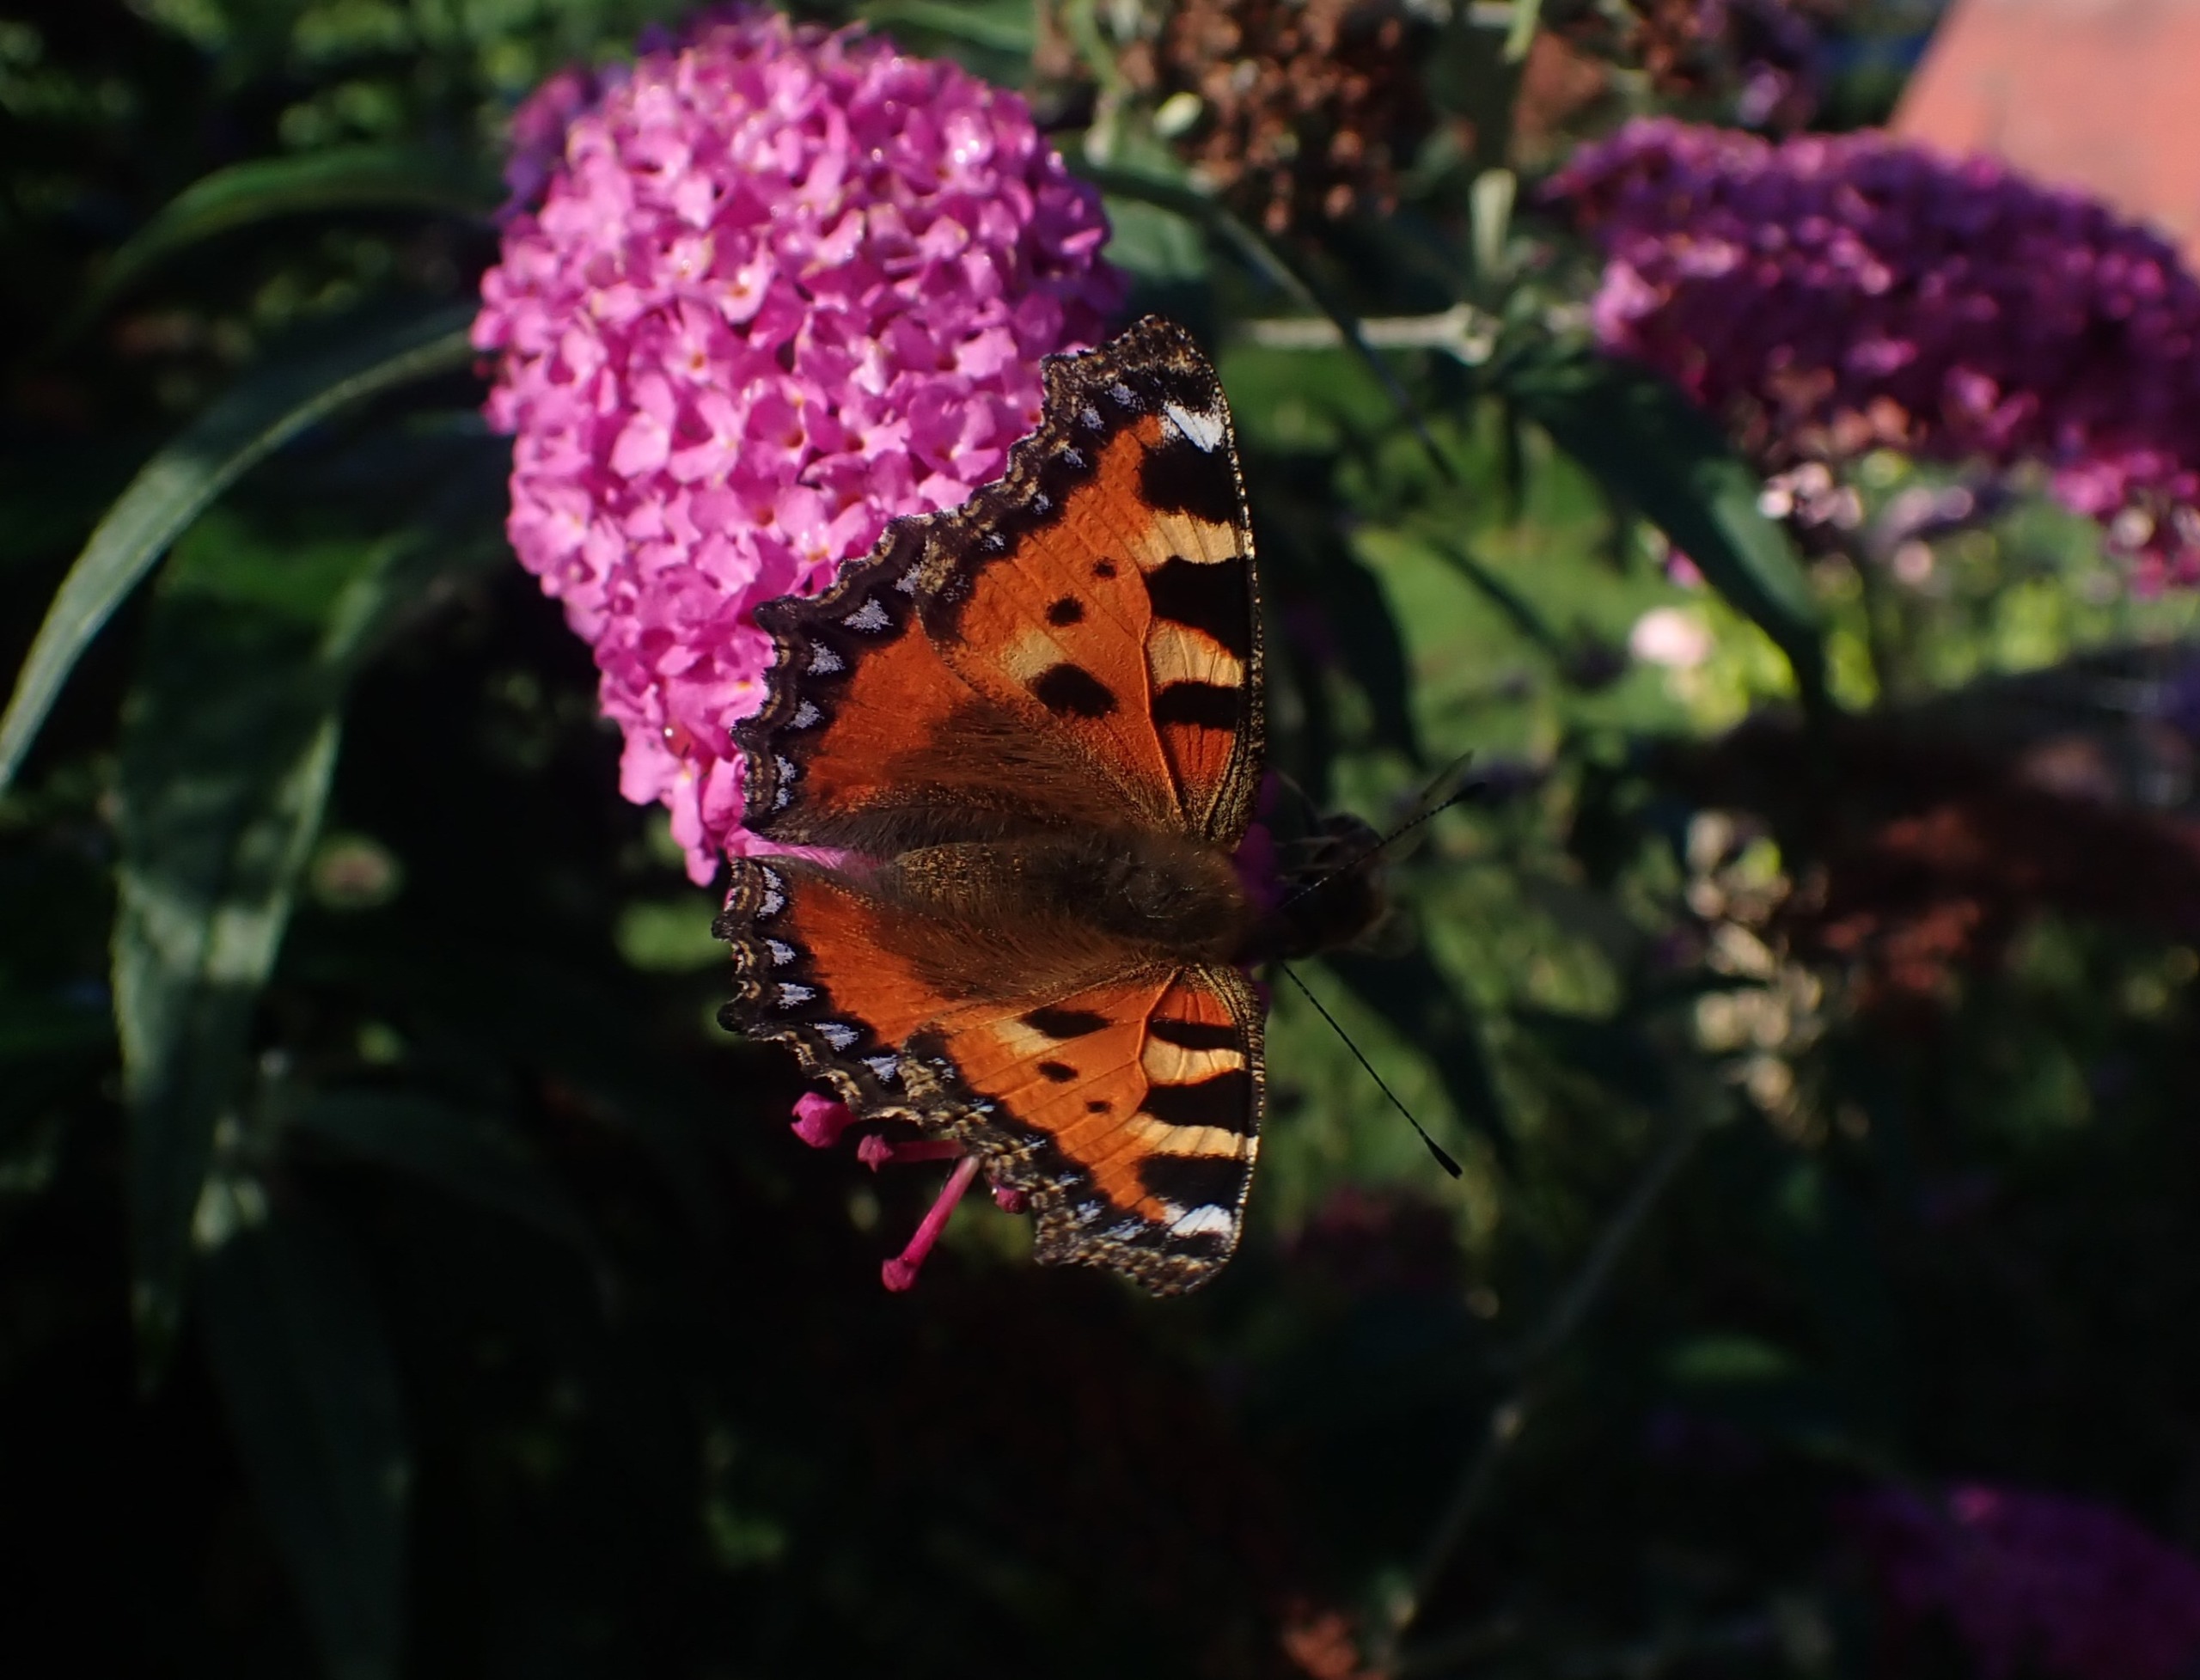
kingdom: Animalia
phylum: Arthropoda
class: Insecta
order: Lepidoptera
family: Nymphalidae
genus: Aglais
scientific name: Aglais urticae
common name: Nældens takvinge
